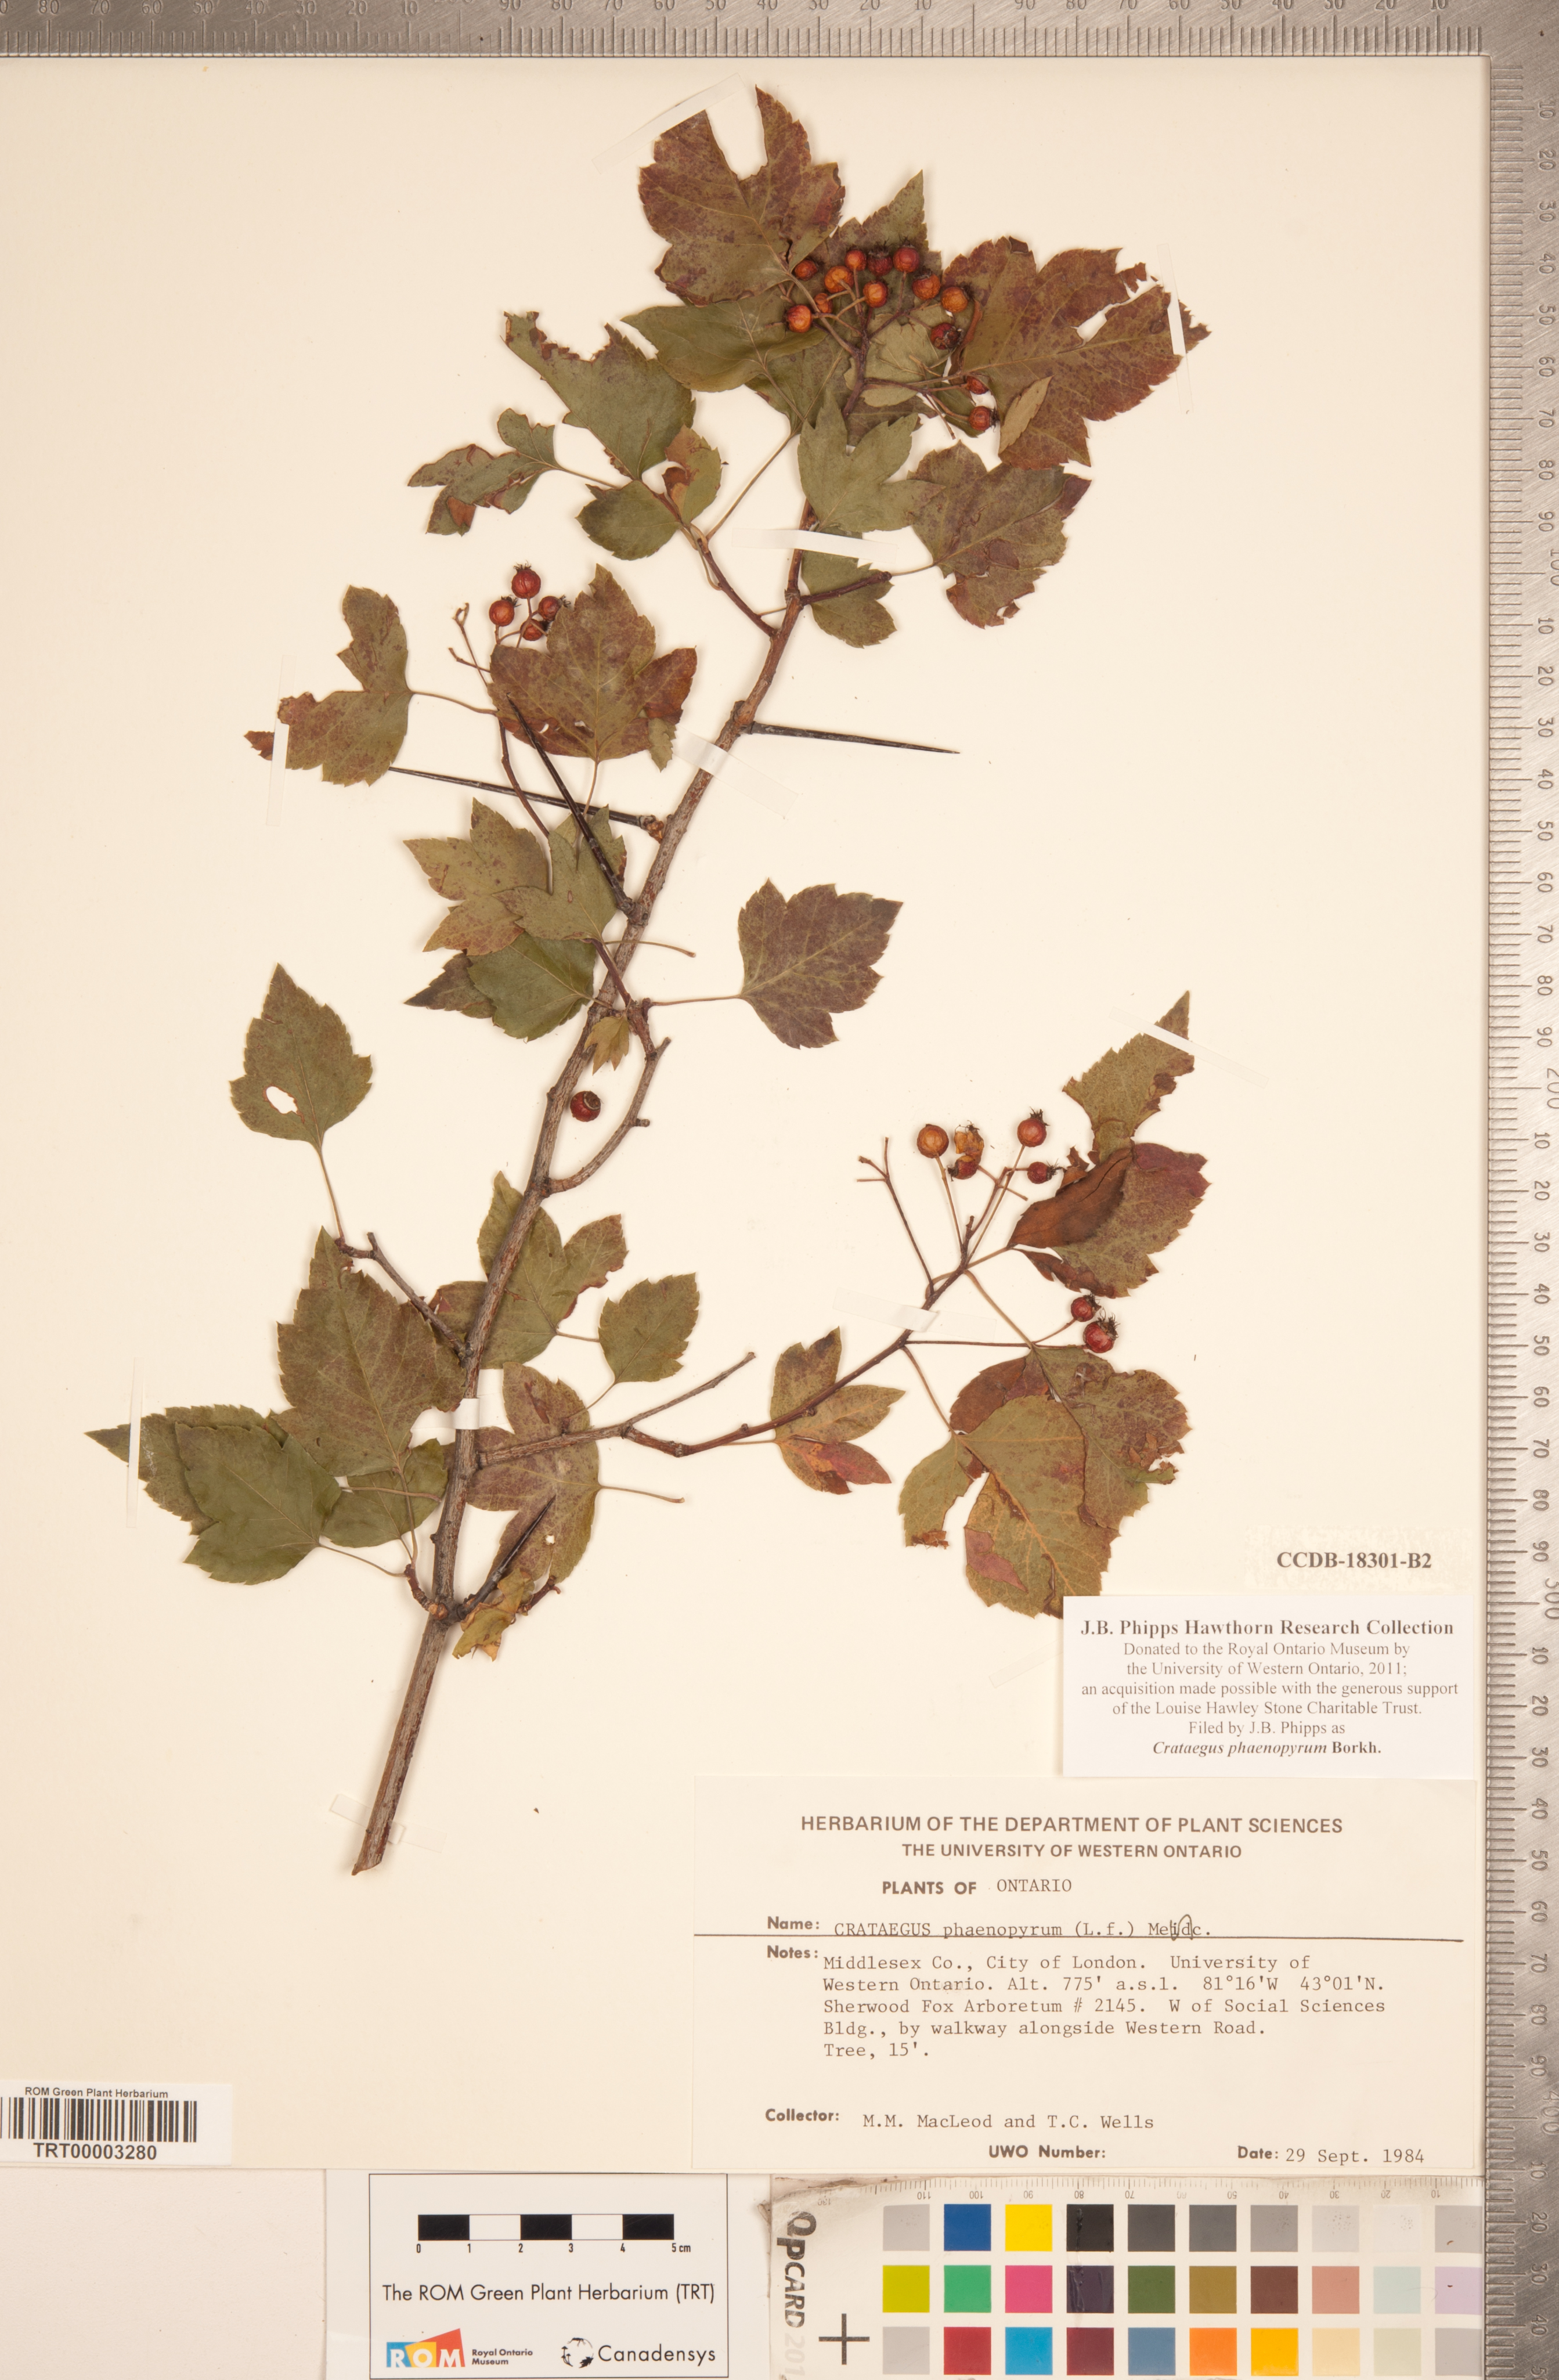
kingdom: Plantae
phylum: Tracheophyta
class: Magnoliopsida
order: Rosales
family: Rosaceae
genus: Crataegus
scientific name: Crataegus phaenopyrum
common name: Washington hawthorn
